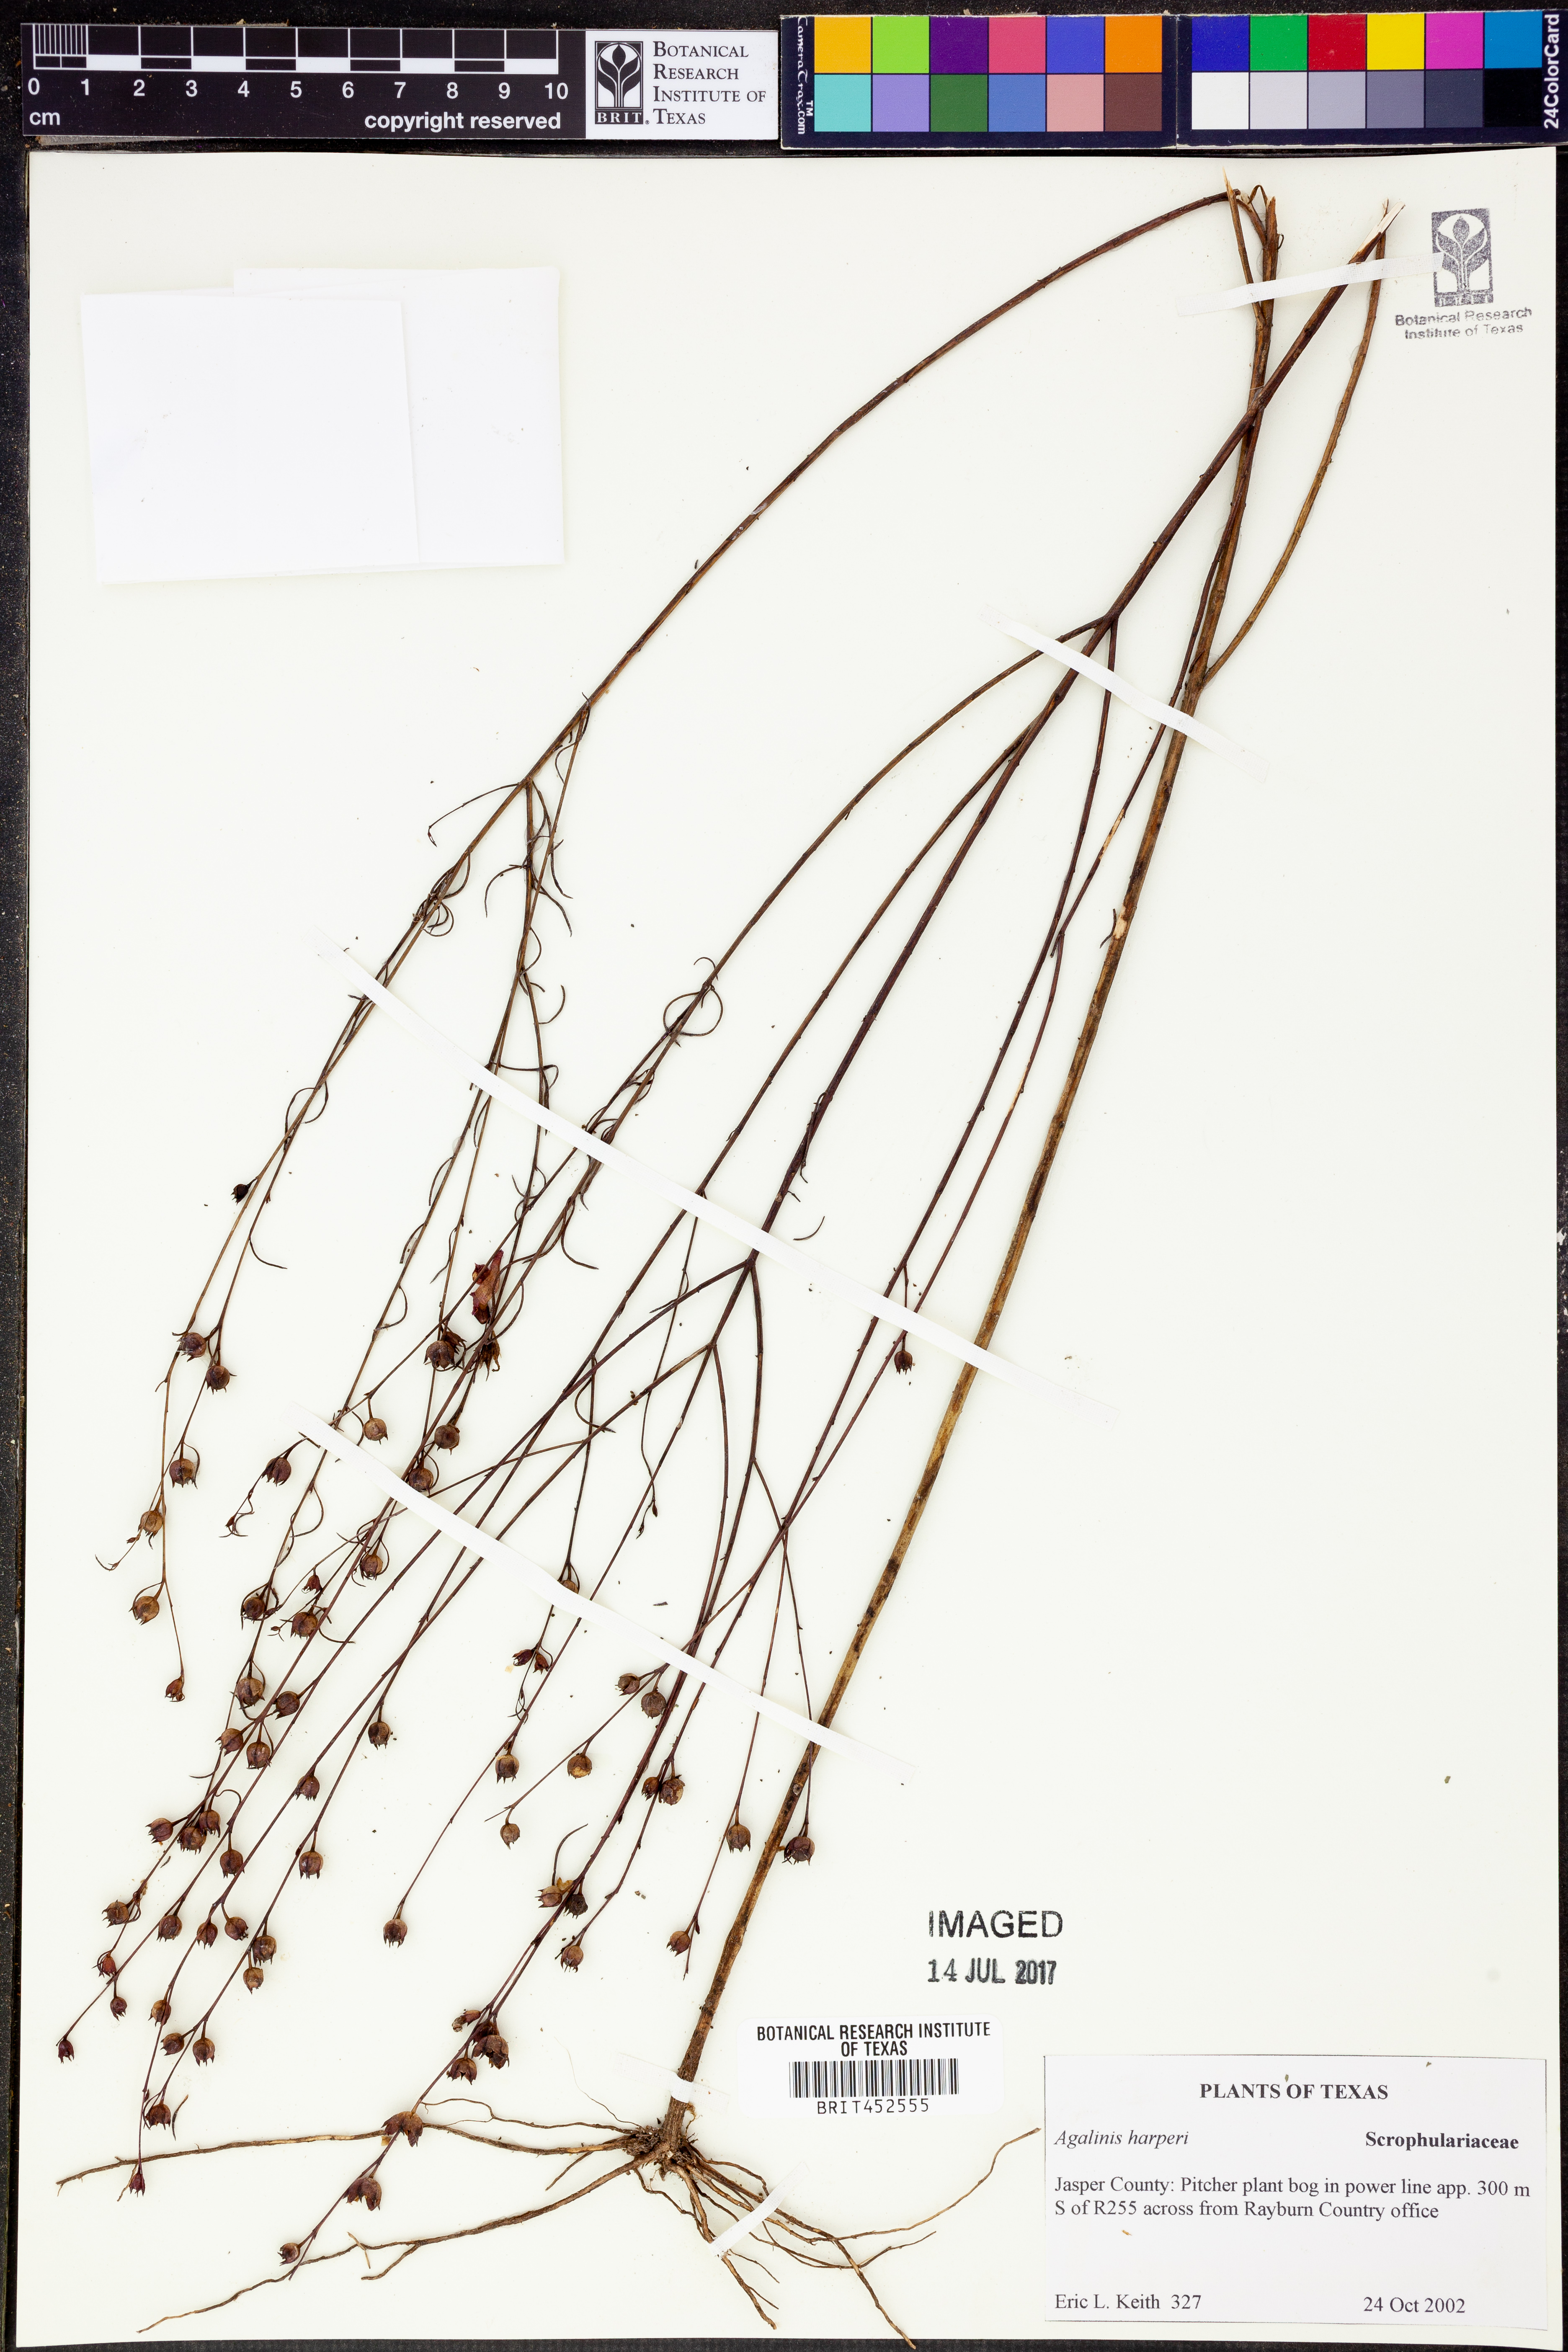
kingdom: Plantae
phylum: Tracheophyta
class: Magnoliopsida
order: Lamiales
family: Orobanchaceae
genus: Agalinis
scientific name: Agalinis harperi
